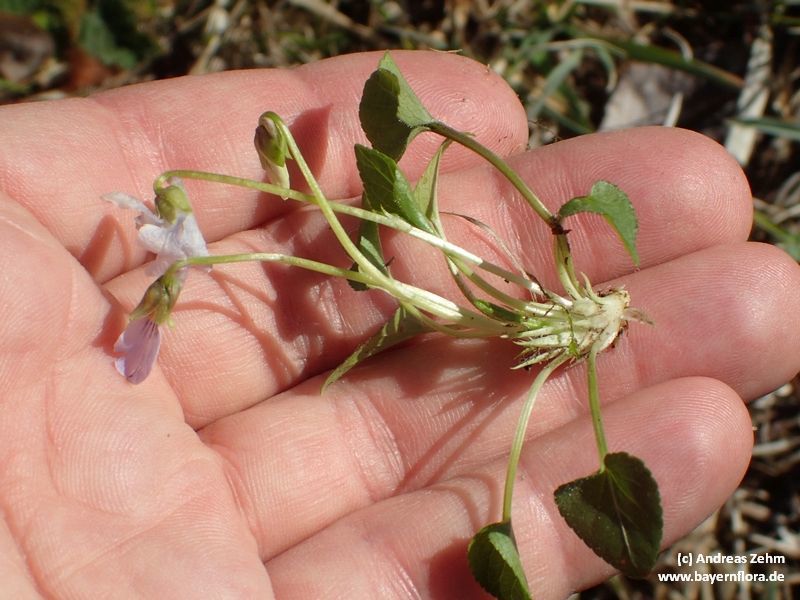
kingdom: Plantae
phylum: Tracheophyta
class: Magnoliopsida
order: Malpighiales
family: Violaceae
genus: Viola
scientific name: Viola hirta
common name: Hairy violet
